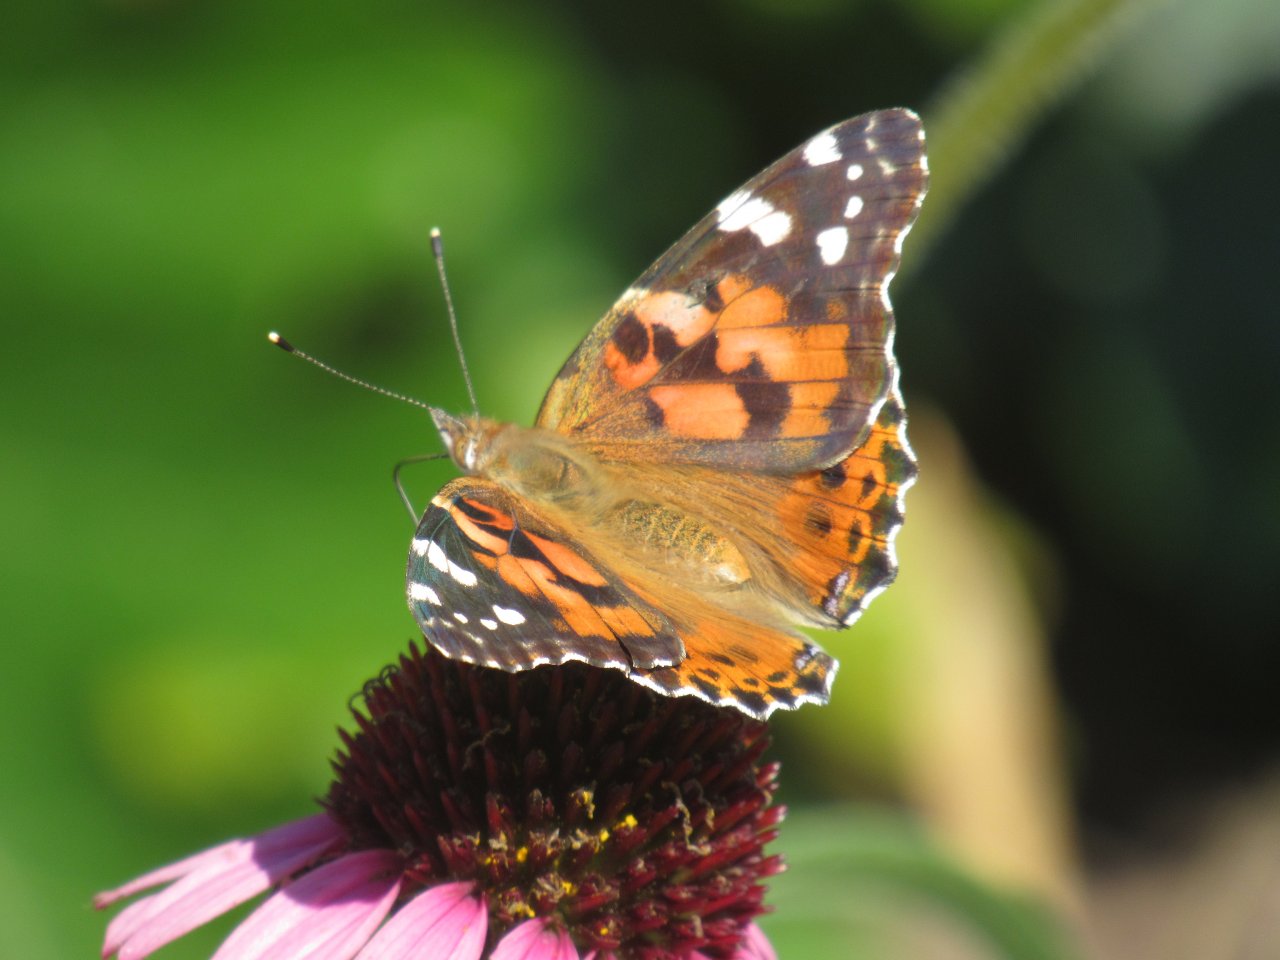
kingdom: Animalia
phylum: Arthropoda
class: Insecta
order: Lepidoptera
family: Nymphalidae
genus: Vanessa
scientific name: Vanessa cardui
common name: Painted Lady
